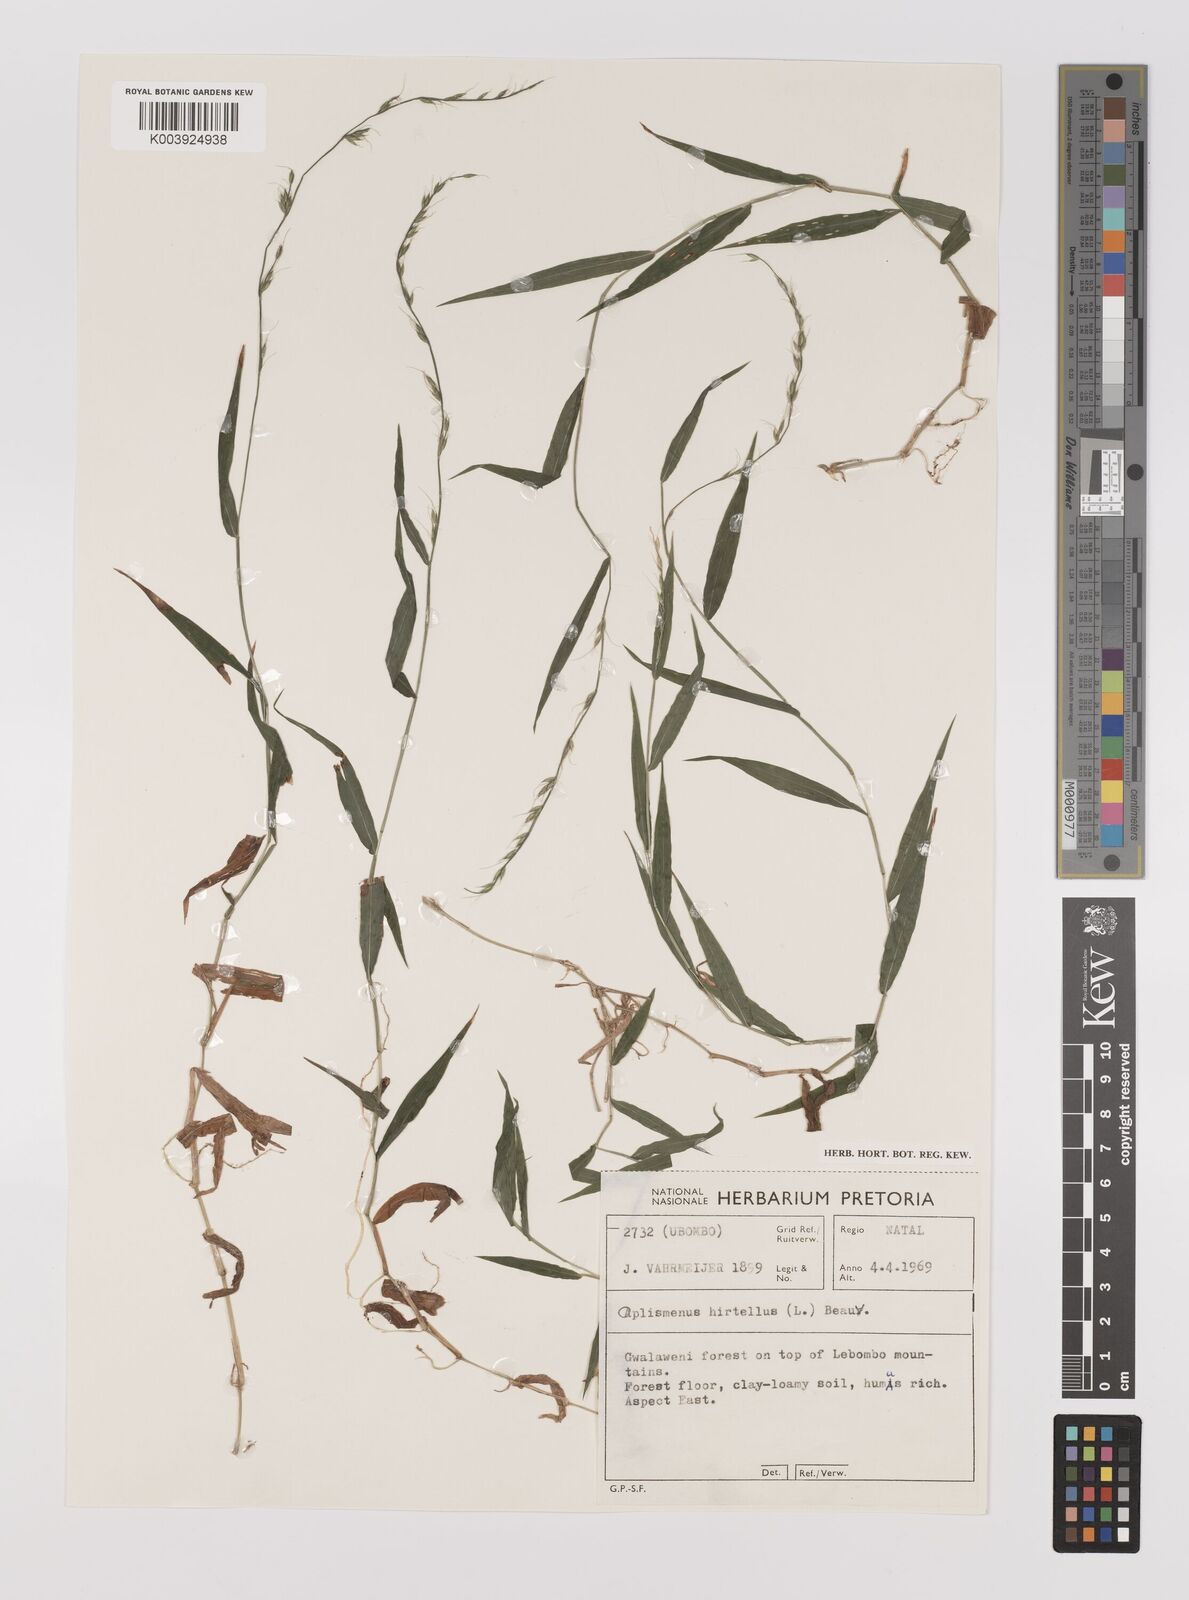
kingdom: Plantae
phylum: Tracheophyta
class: Liliopsida
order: Poales
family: Poaceae
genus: Oplismenus
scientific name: Oplismenus undulatifolius
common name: Wavyleaf basketgrass
